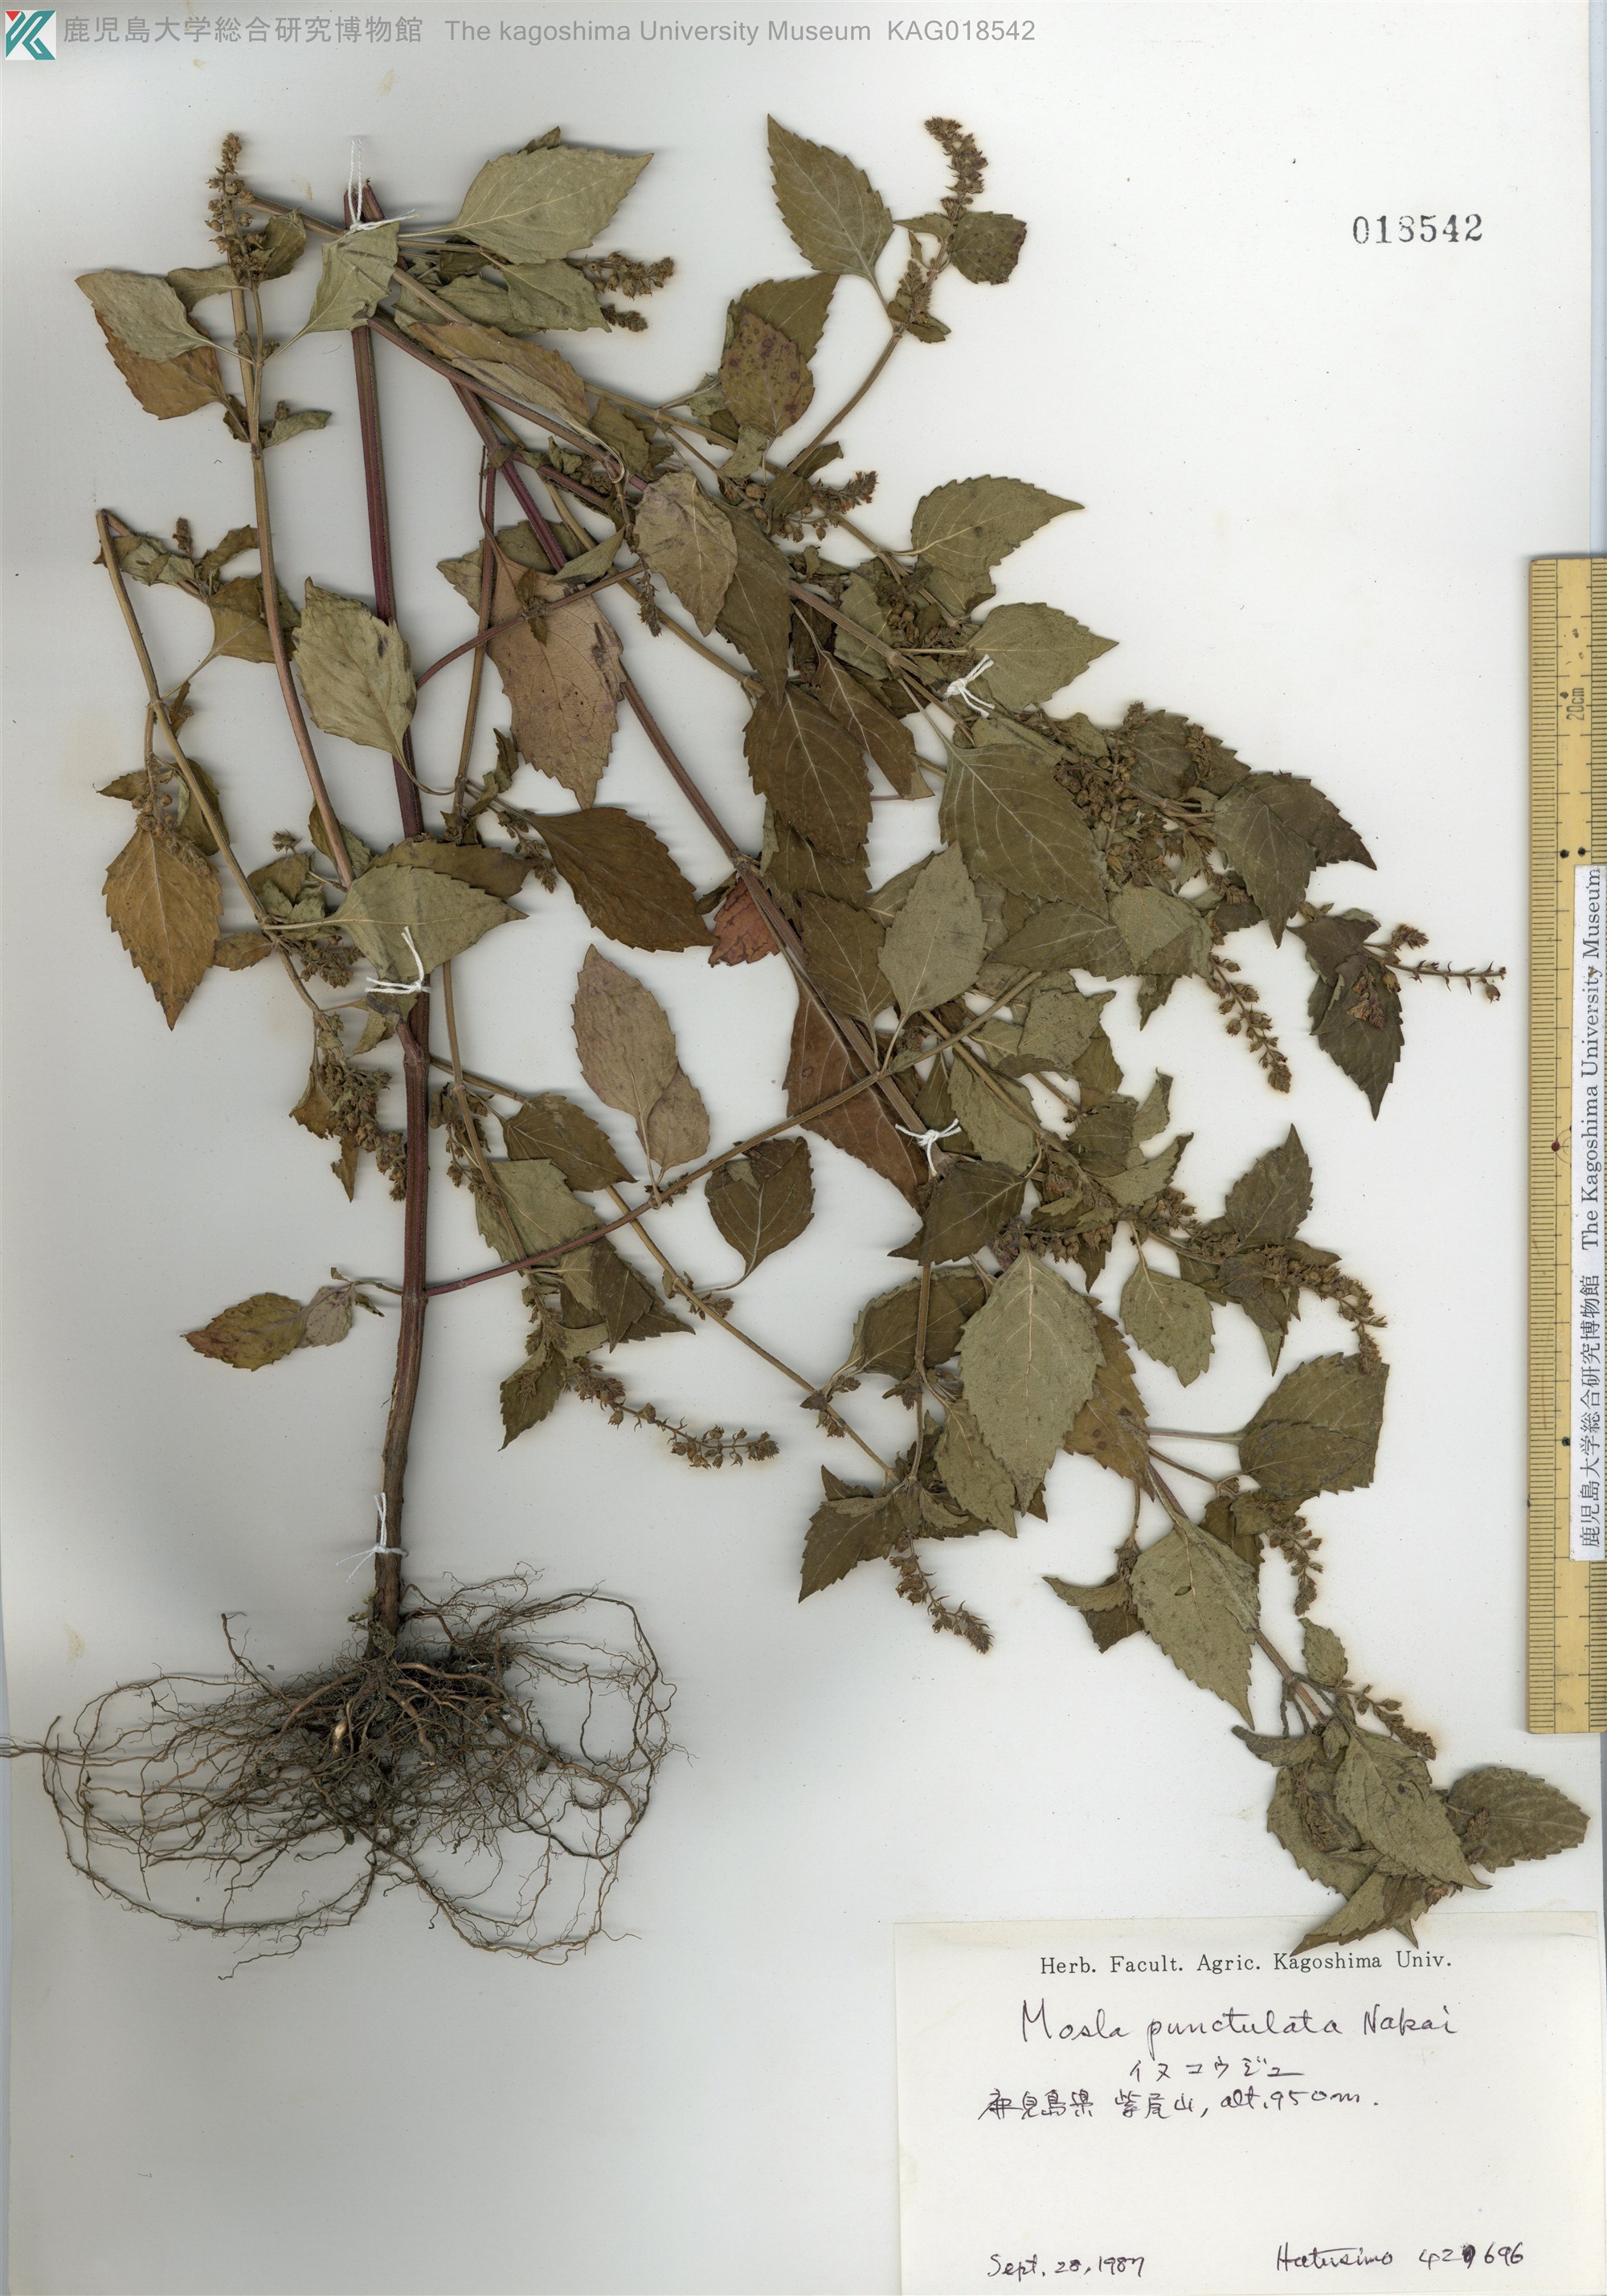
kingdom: Plantae
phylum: Tracheophyta
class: Magnoliopsida
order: Lamiales
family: Lamiaceae
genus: Mosla
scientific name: Mosla scabra
